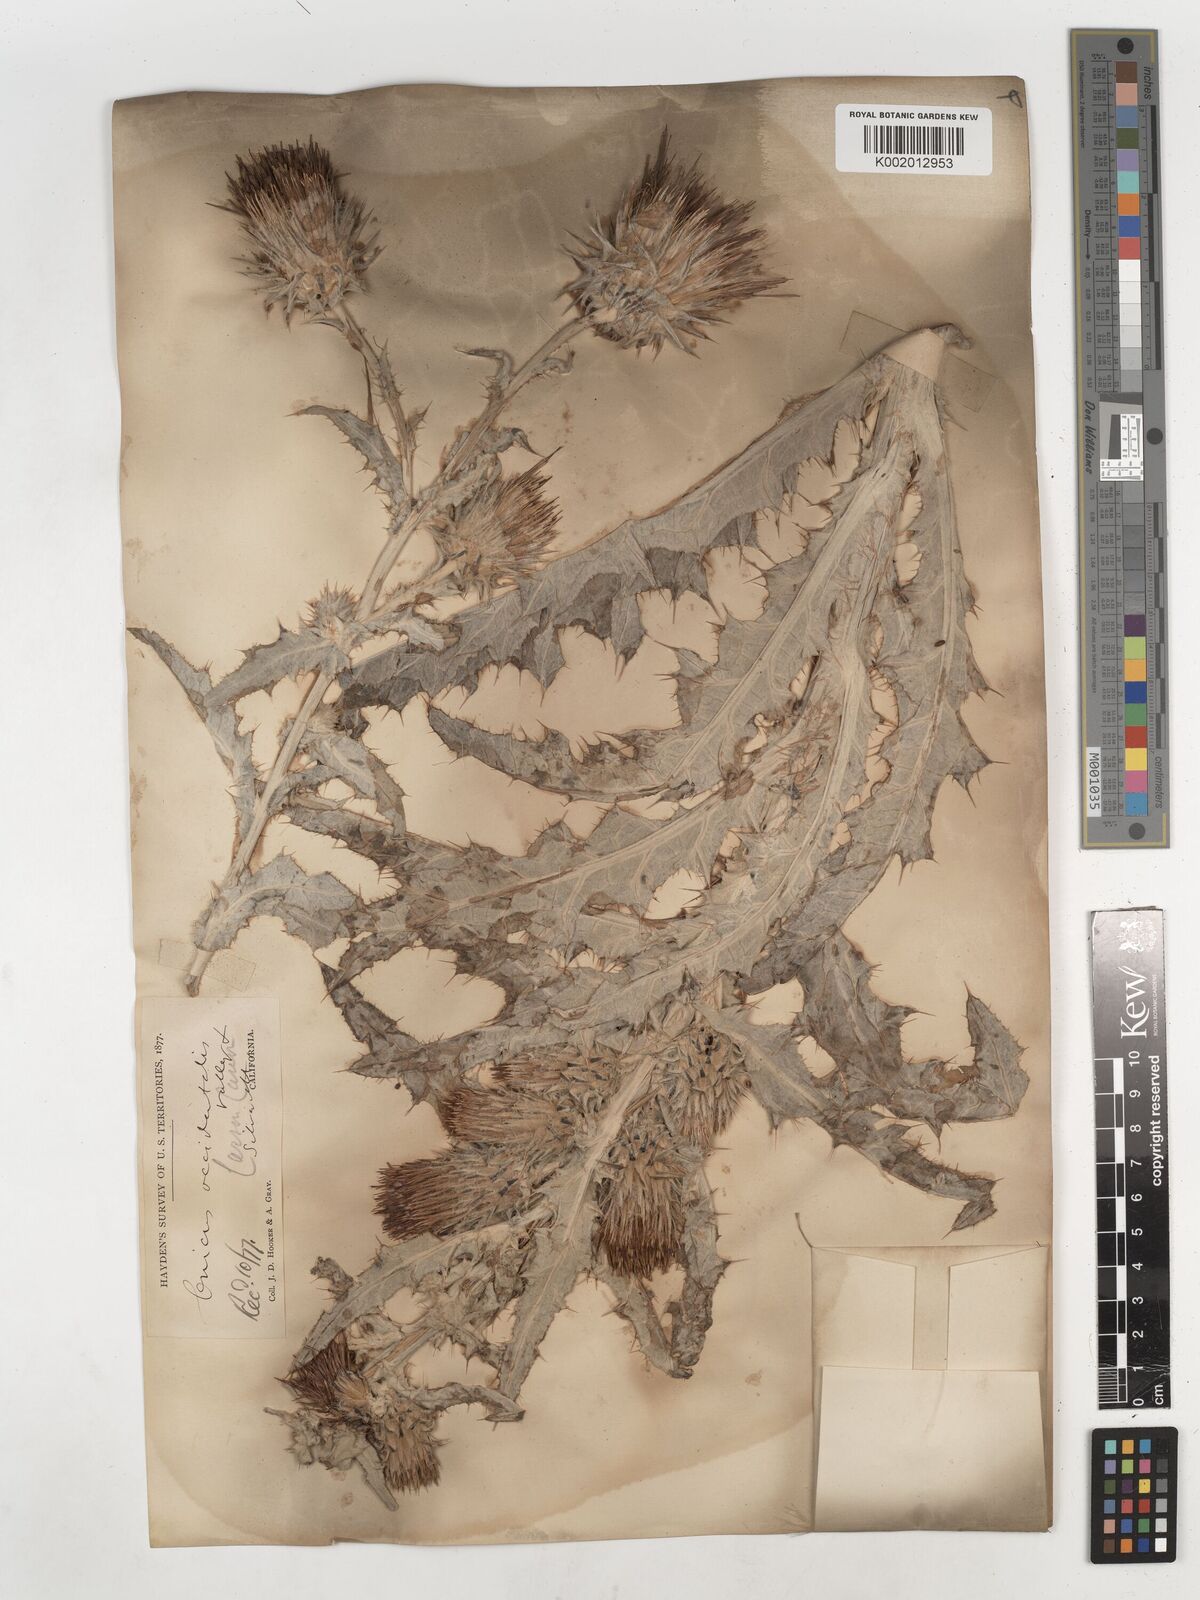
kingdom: Plantae
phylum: Tracheophyta
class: Magnoliopsida
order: Asterales
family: Asteraceae
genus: Cirsium
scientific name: Cirsium occidentale
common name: Western thistle
